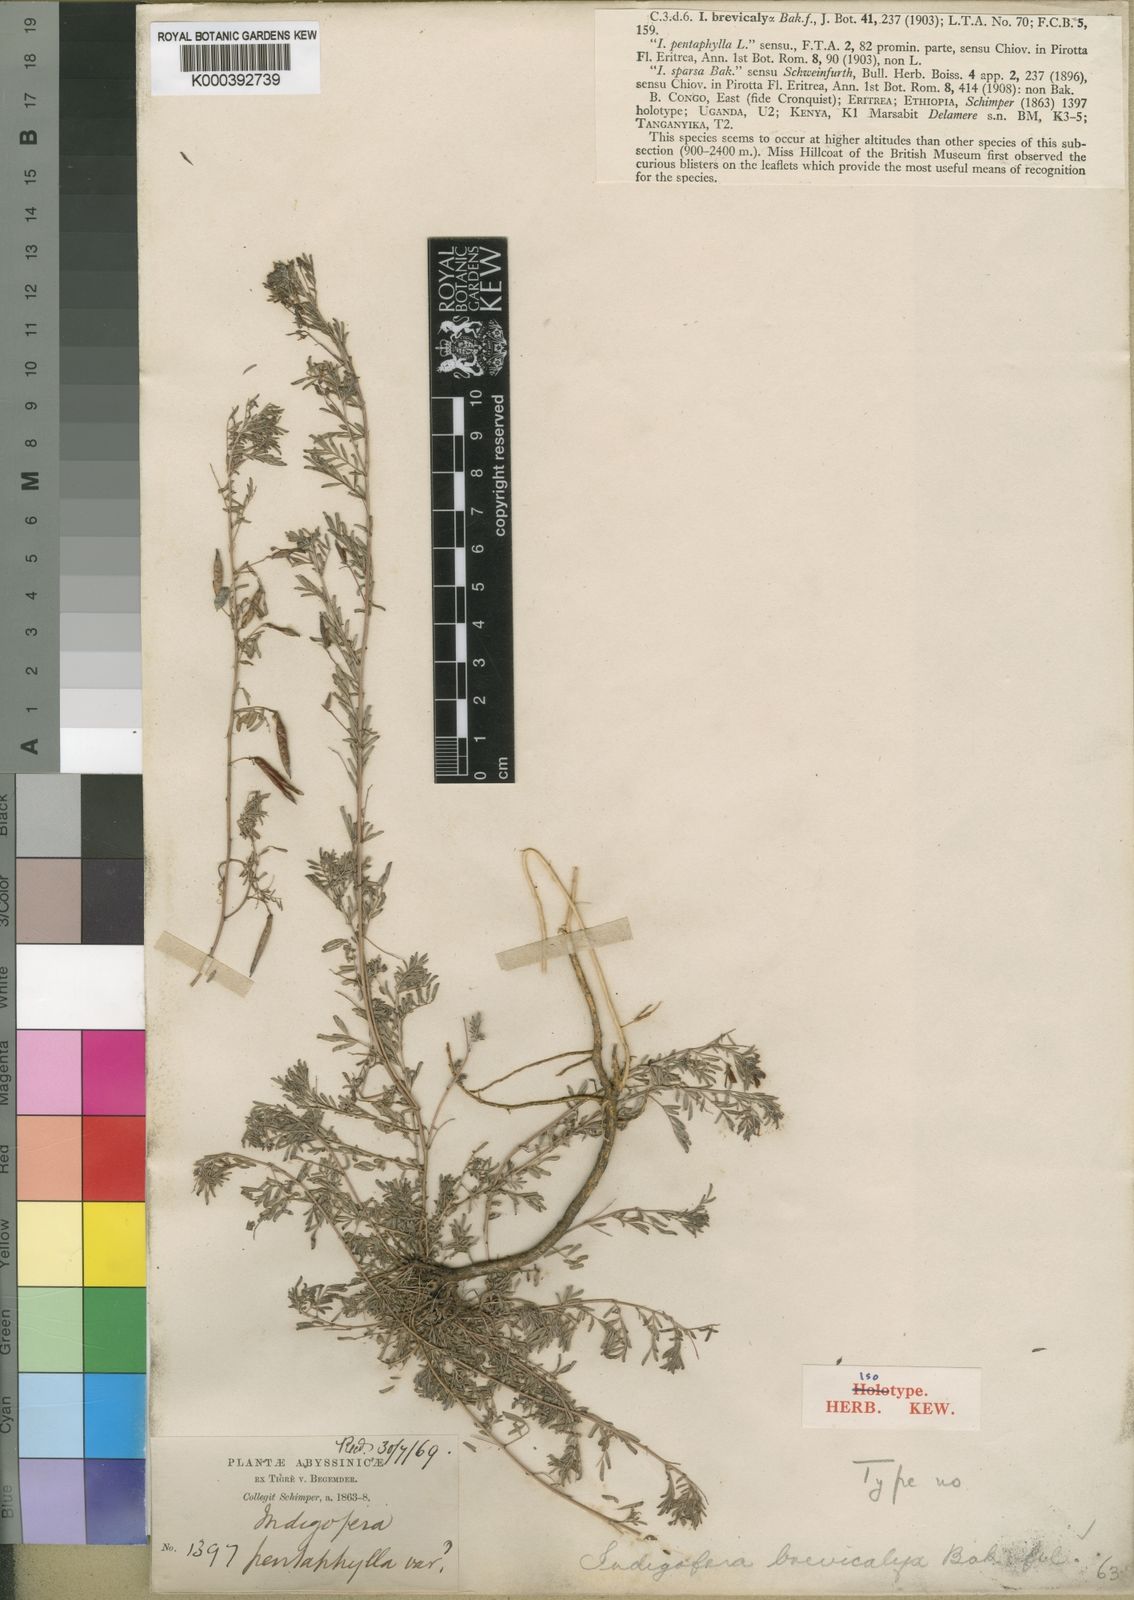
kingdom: Plantae
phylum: Tracheophyta
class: Magnoliopsida
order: Fabales
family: Fabaceae
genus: Indigofera
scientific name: Indigofera brevicalyx
